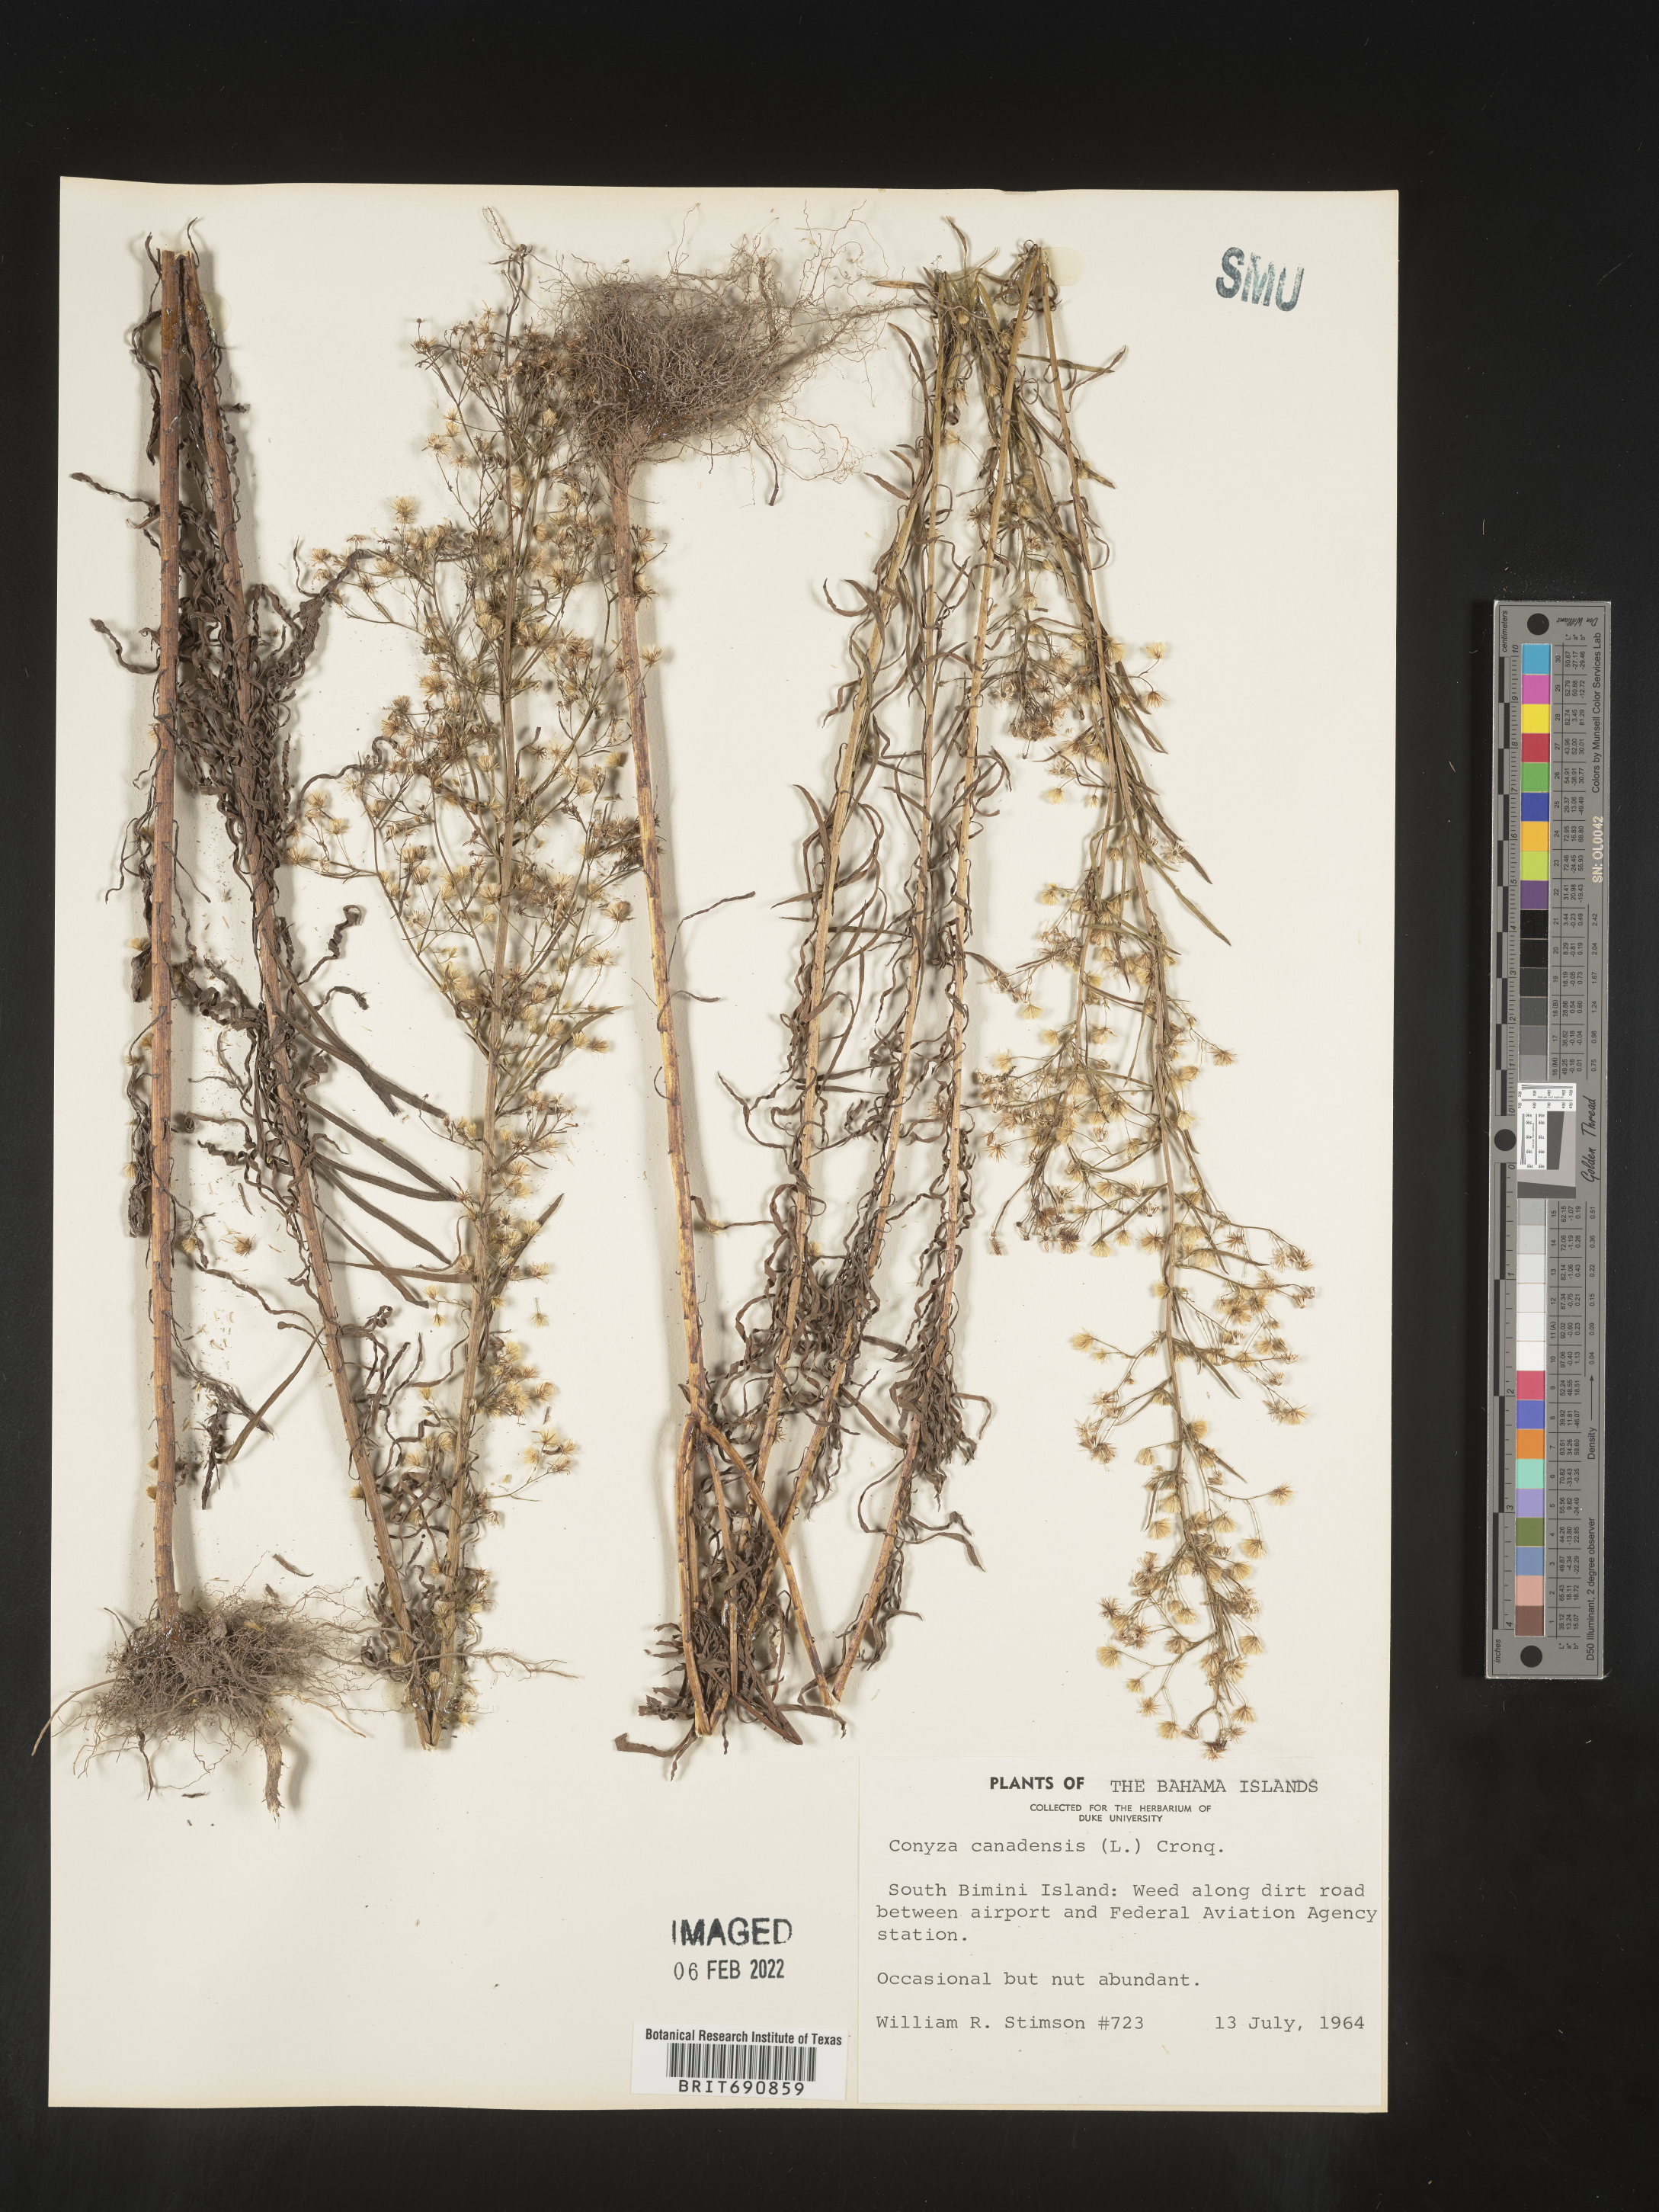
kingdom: Plantae
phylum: Tracheophyta
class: Magnoliopsida
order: Asterales
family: Asteraceae
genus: Conyza
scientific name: Conyza
